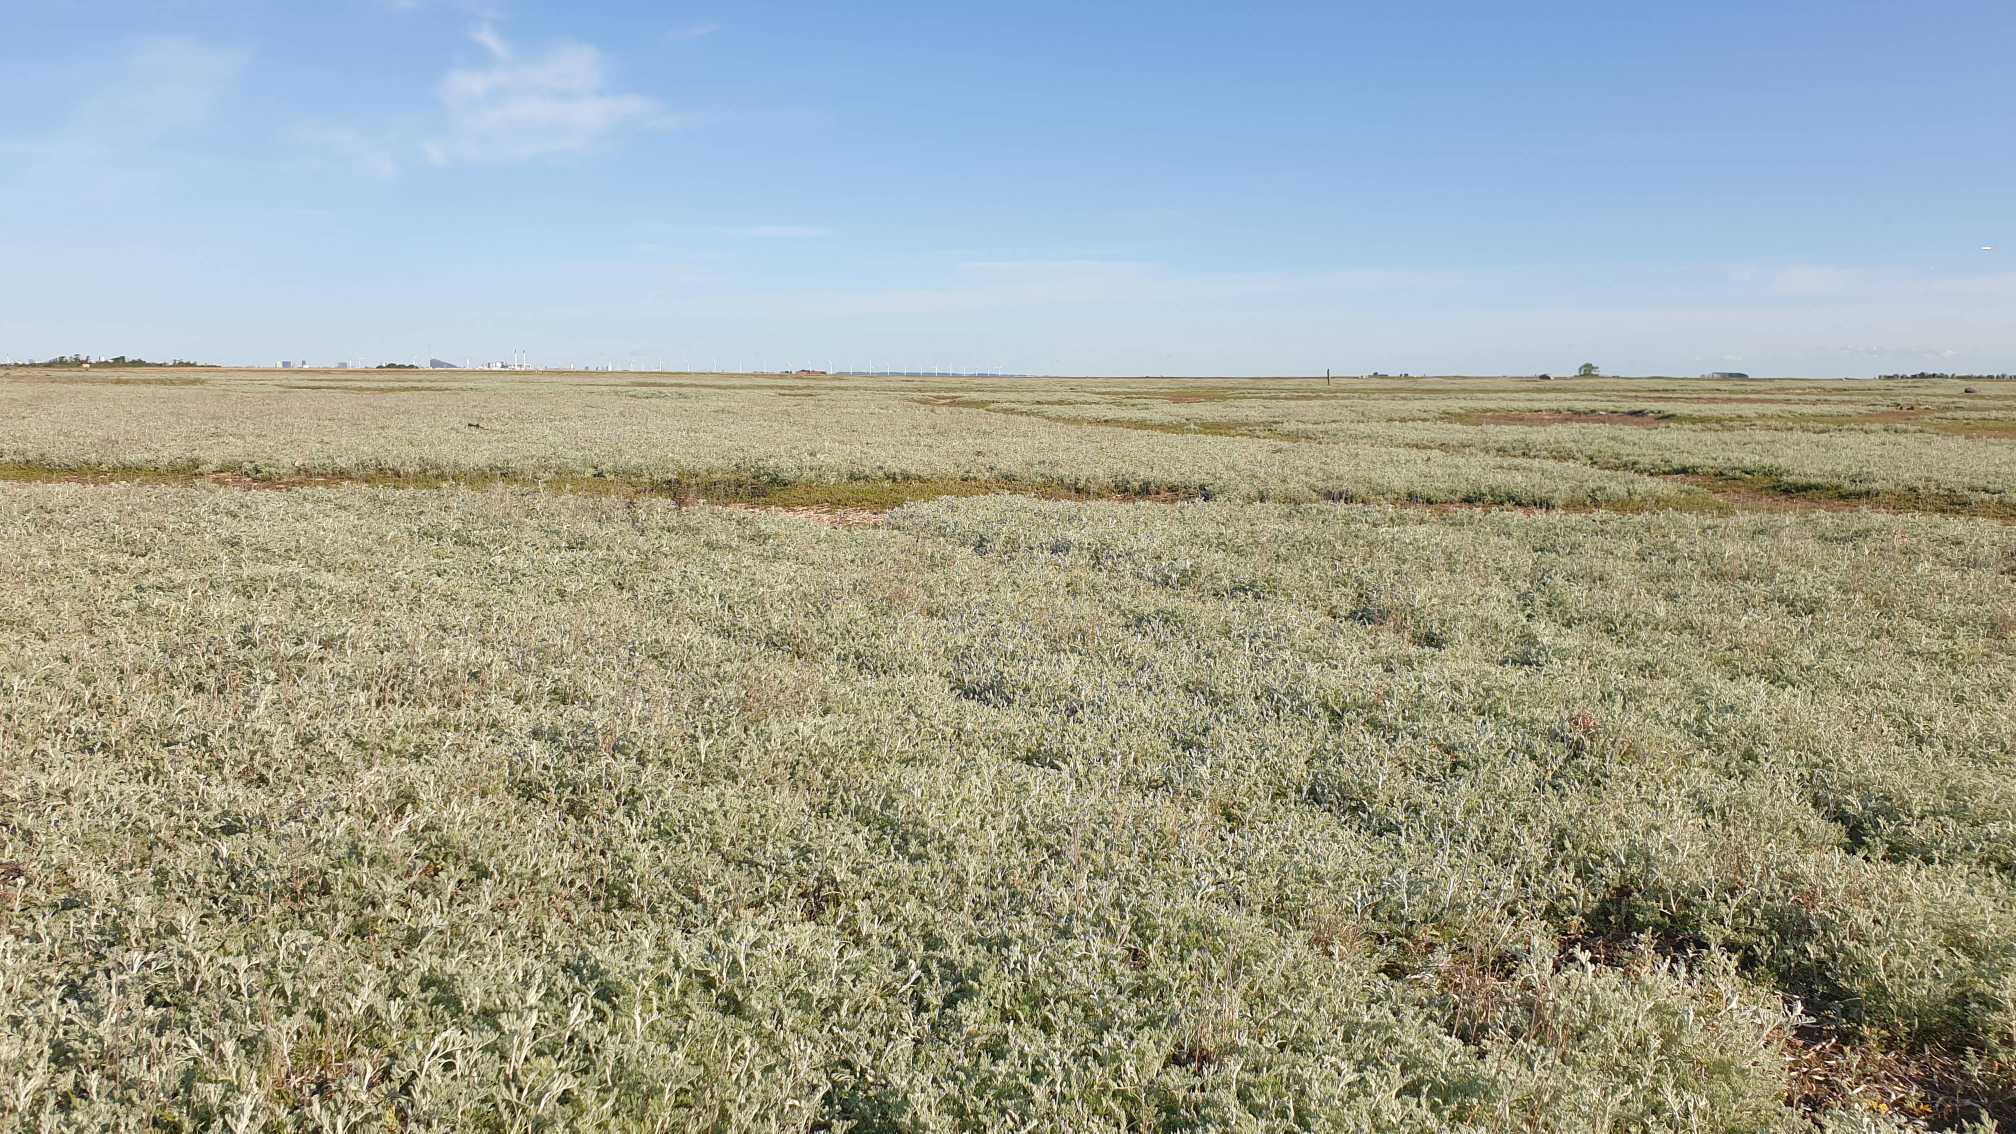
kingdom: Plantae
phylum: Tracheophyta
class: Magnoliopsida
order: Asterales
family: Asteraceae
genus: Artemisia
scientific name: Artemisia maritima
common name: Strandmalurt
